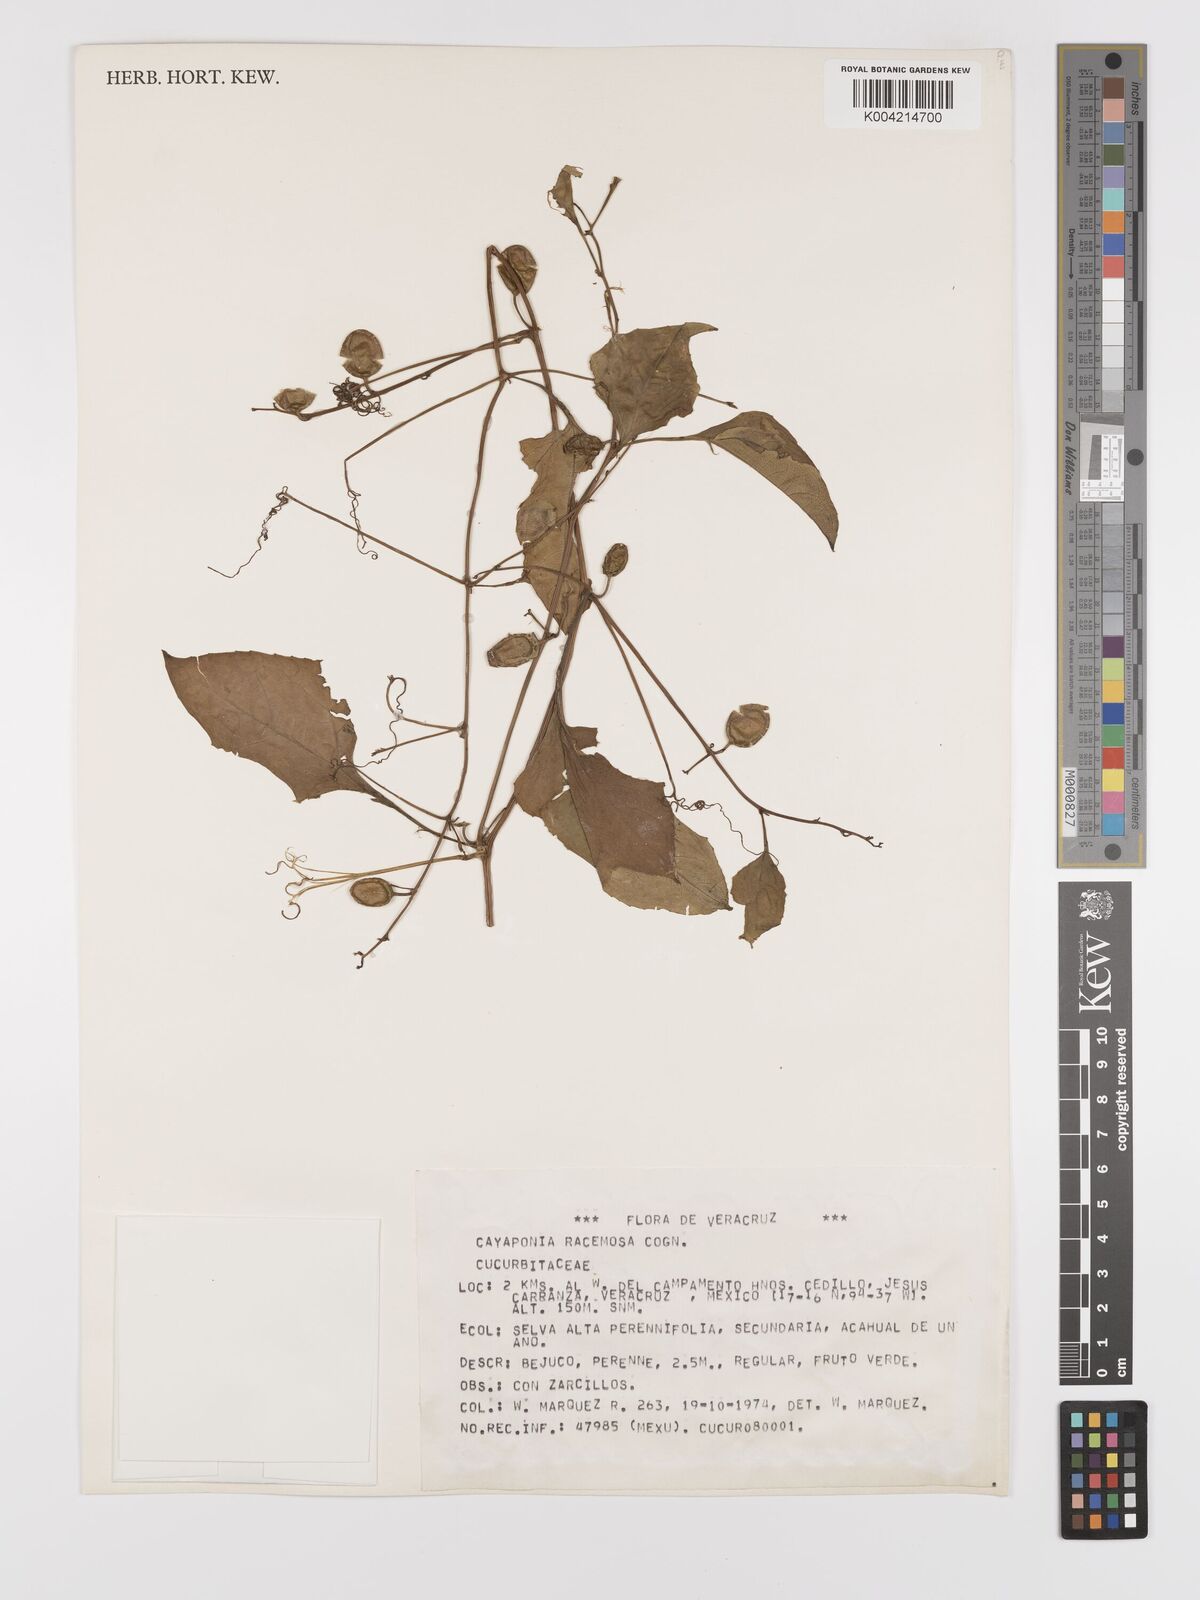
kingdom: Plantae
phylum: Tracheophyta
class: Magnoliopsida
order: Cucurbitales
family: Cucurbitaceae
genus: Cayaponia
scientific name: Cayaponia racemosa
